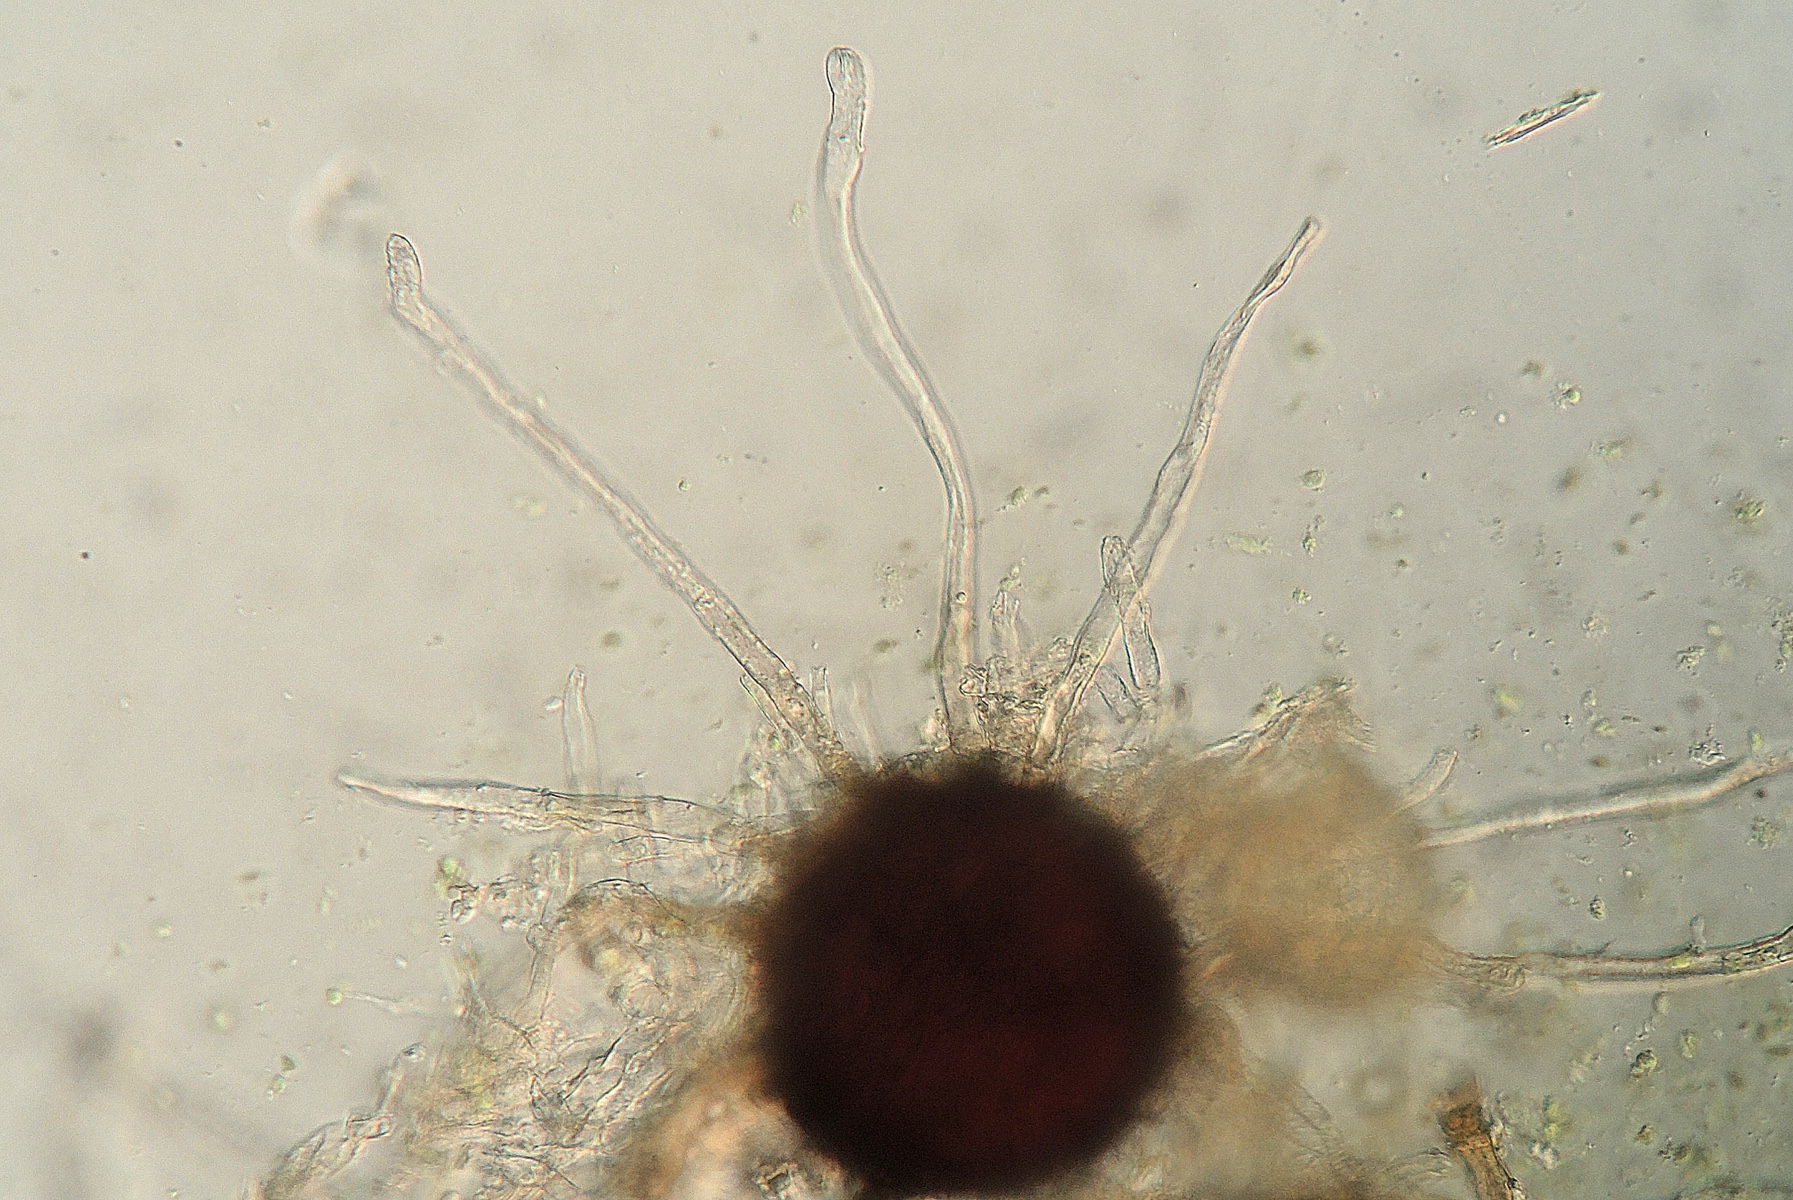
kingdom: Fungi
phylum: Ascomycota
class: Leotiomycetes
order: Helotiales
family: Erysiphaceae
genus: Erysiphe
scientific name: Erysiphe intermedia
